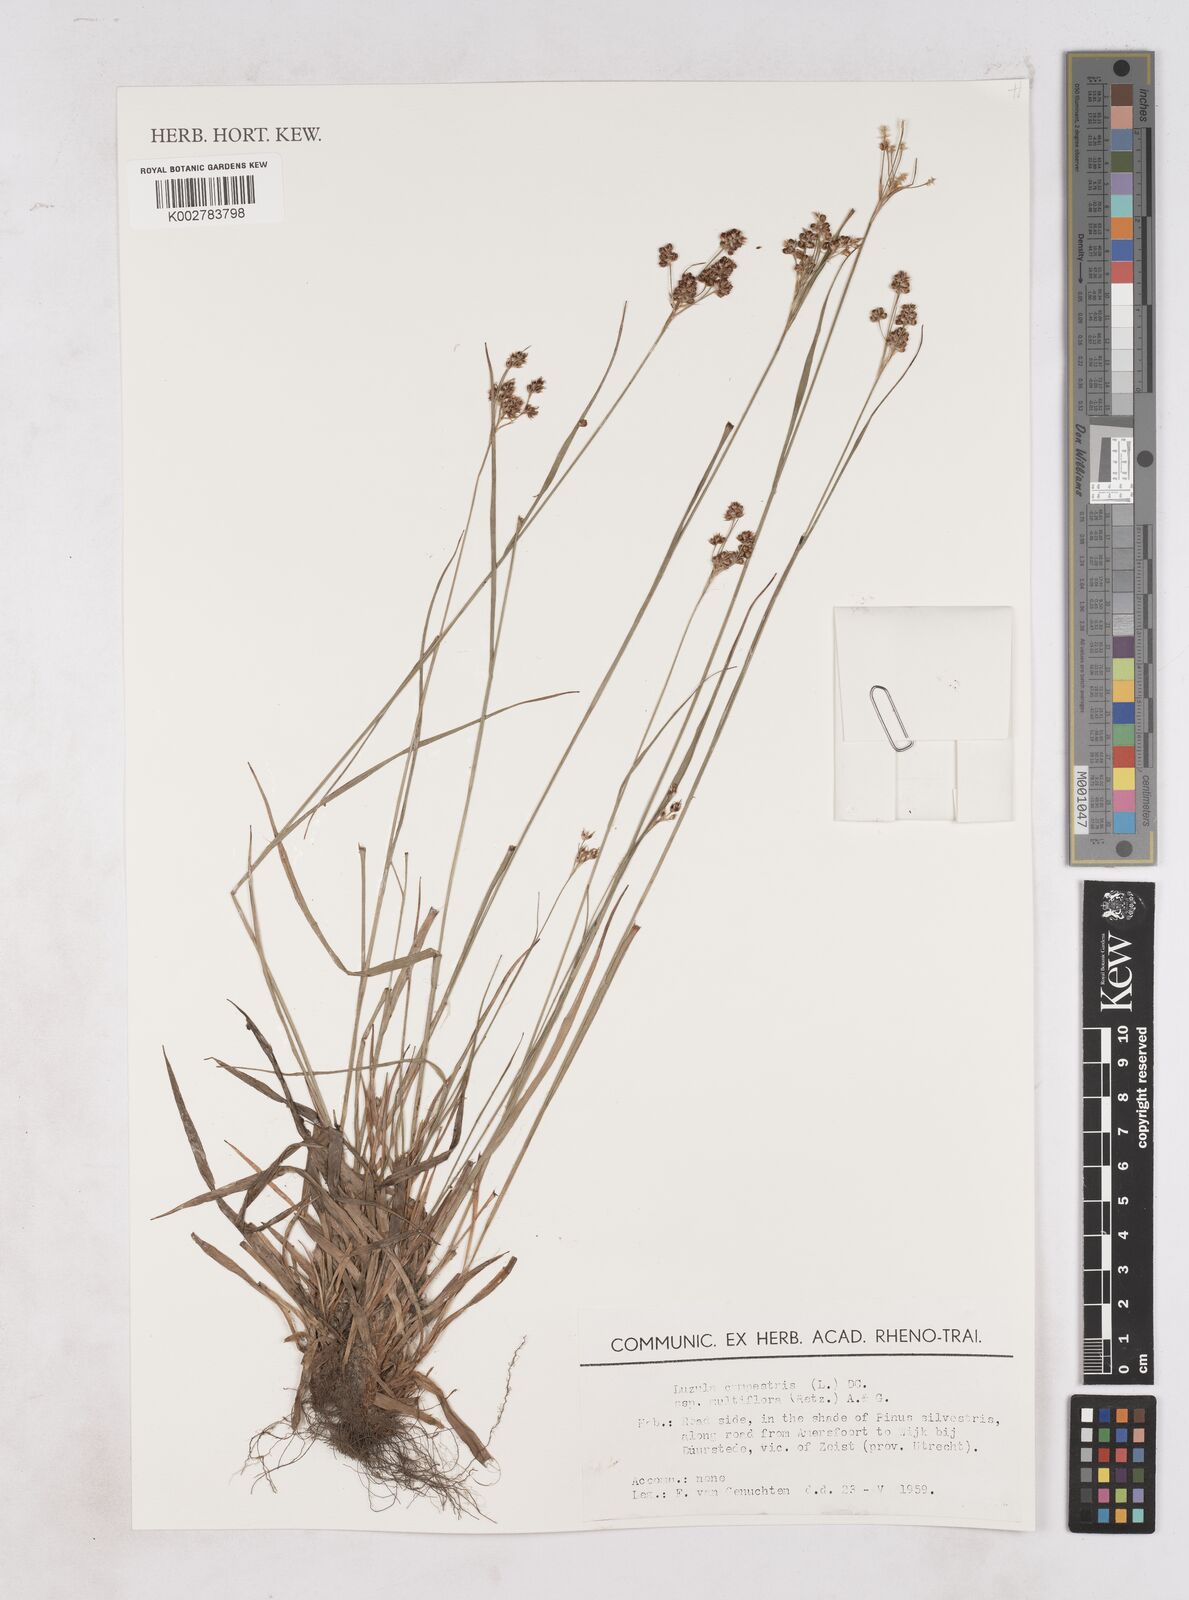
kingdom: Plantae
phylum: Tracheophyta
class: Liliopsida
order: Poales
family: Juncaceae
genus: Luzula
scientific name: Luzula campestris
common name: Field wood-rush
